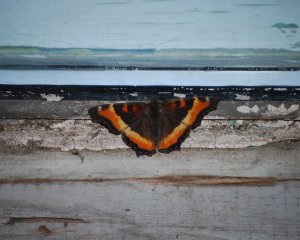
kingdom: Animalia
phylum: Arthropoda
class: Insecta
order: Lepidoptera
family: Nymphalidae
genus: Aglais
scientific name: Aglais milberti
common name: Milbert's Tortoiseshell
